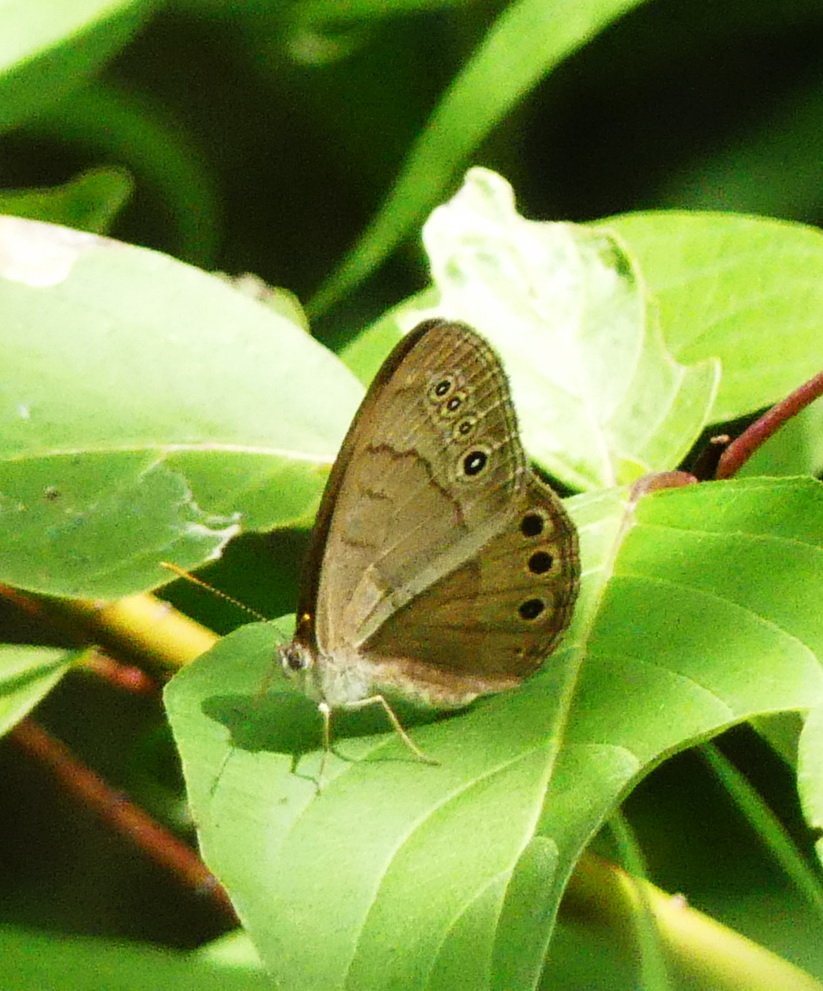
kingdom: Animalia
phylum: Arthropoda
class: Insecta
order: Lepidoptera
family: Nymphalidae
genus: Lethe
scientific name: Lethe eurydice
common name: Appalachian Eyed Brown
